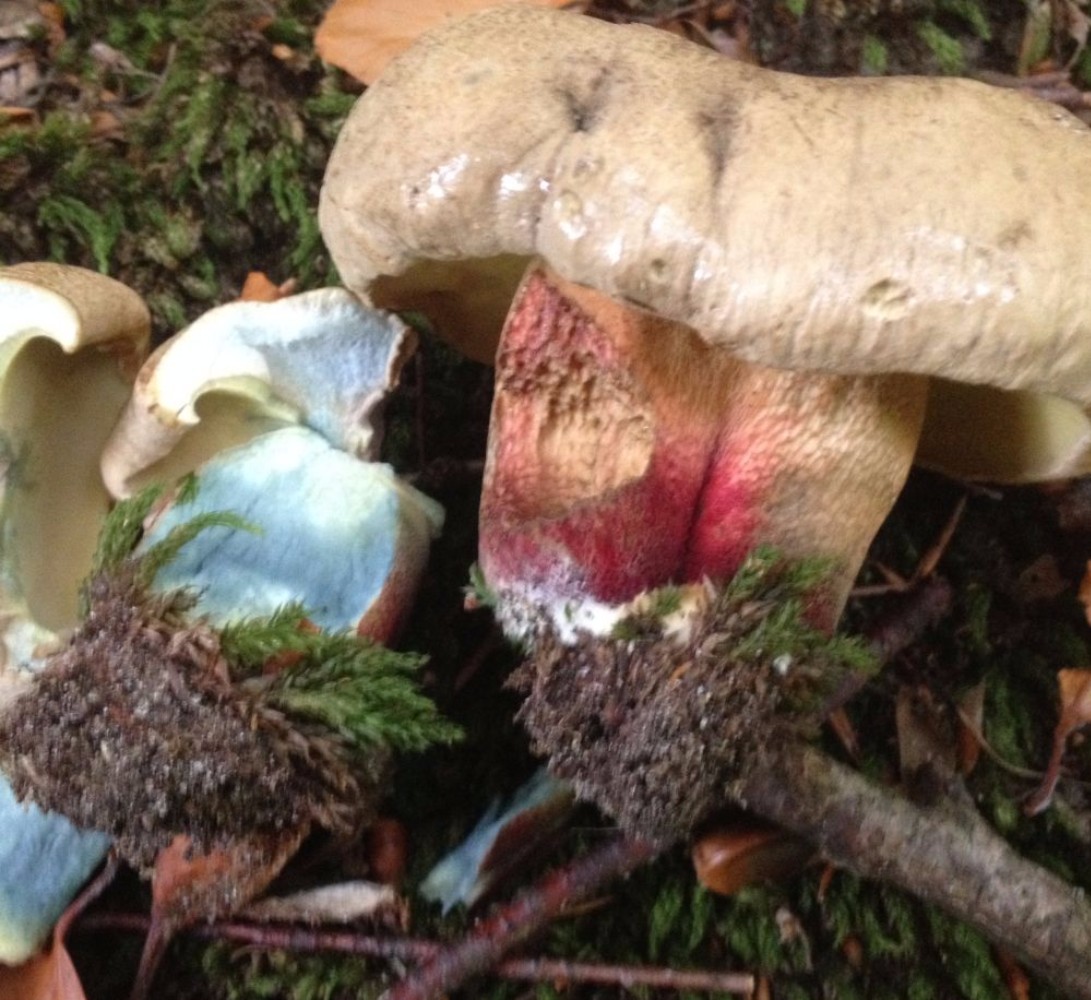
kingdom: Fungi
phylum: Basidiomycota
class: Agaricomycetes
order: Boletales
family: Boletaceae
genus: Caloboletus
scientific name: Caloboletus calopus
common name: skønfodet rørhat
